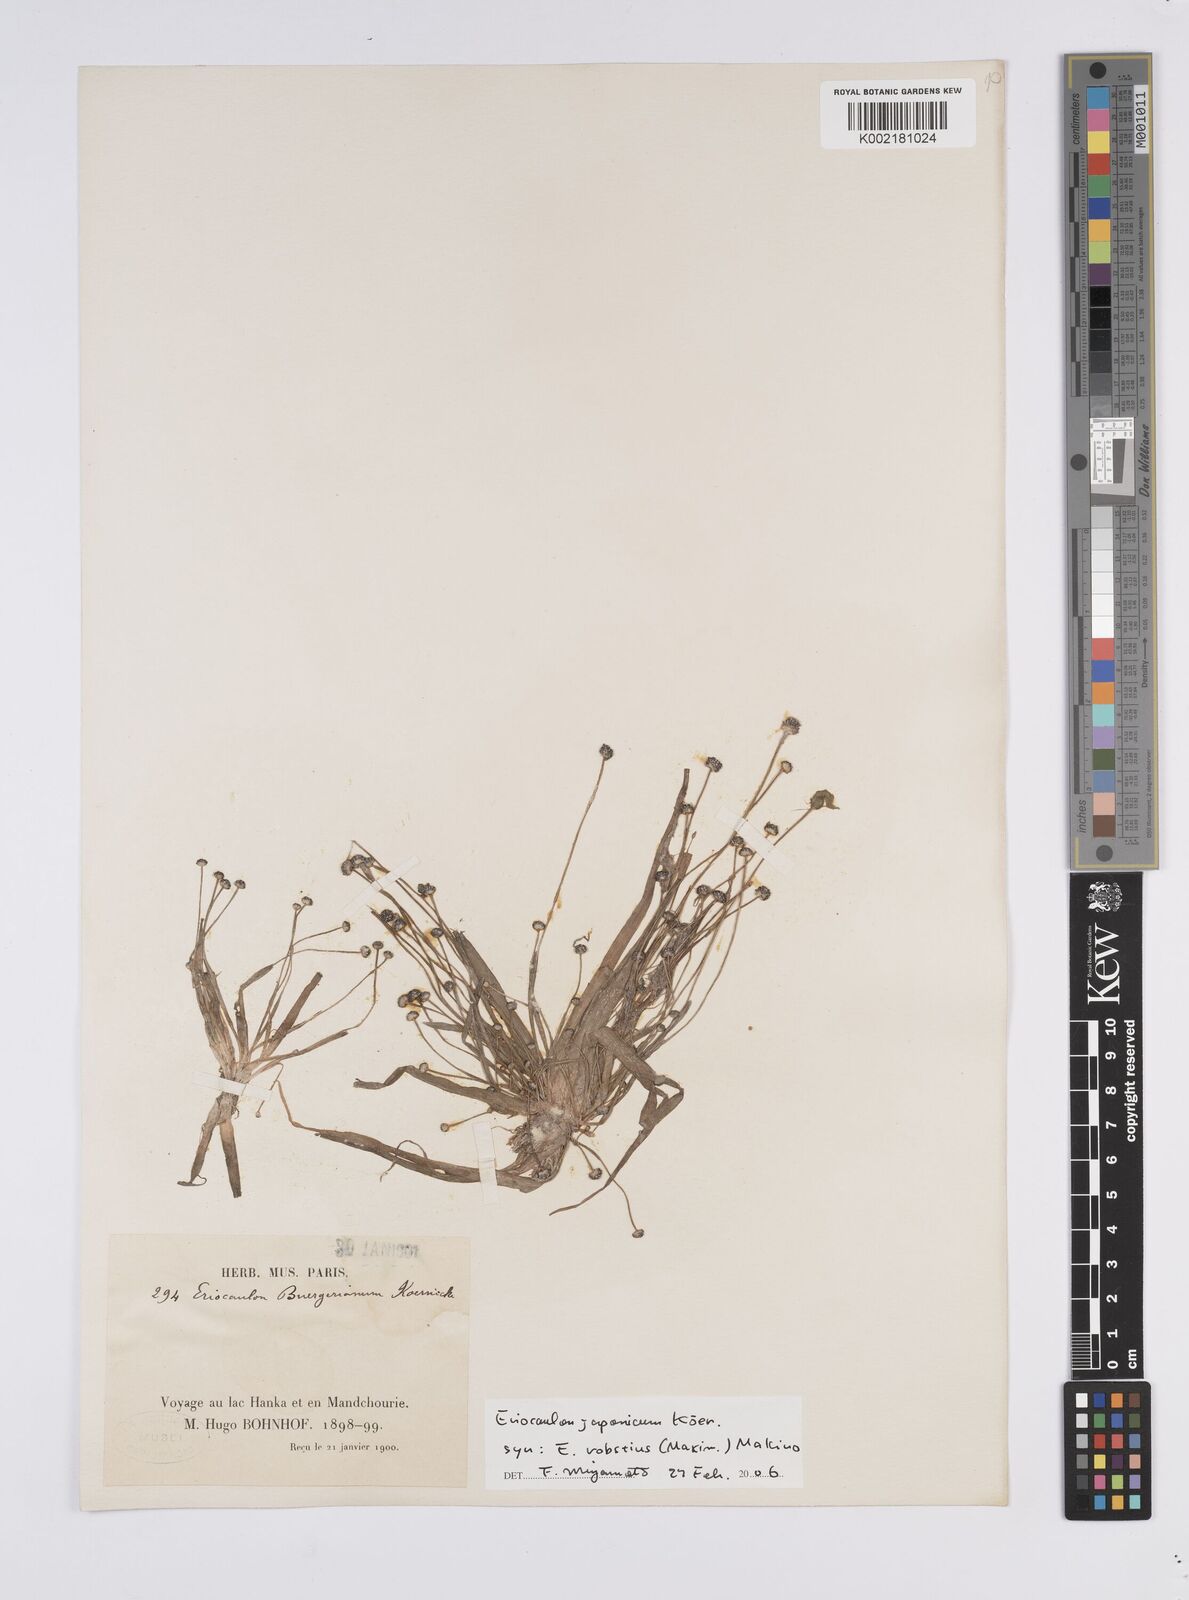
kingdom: Plantae
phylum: Tracheophyta
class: Liliopsida
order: Poales
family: Eriocaulaceae
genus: Eriocaulon
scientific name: Eriocaulon buergerianum
